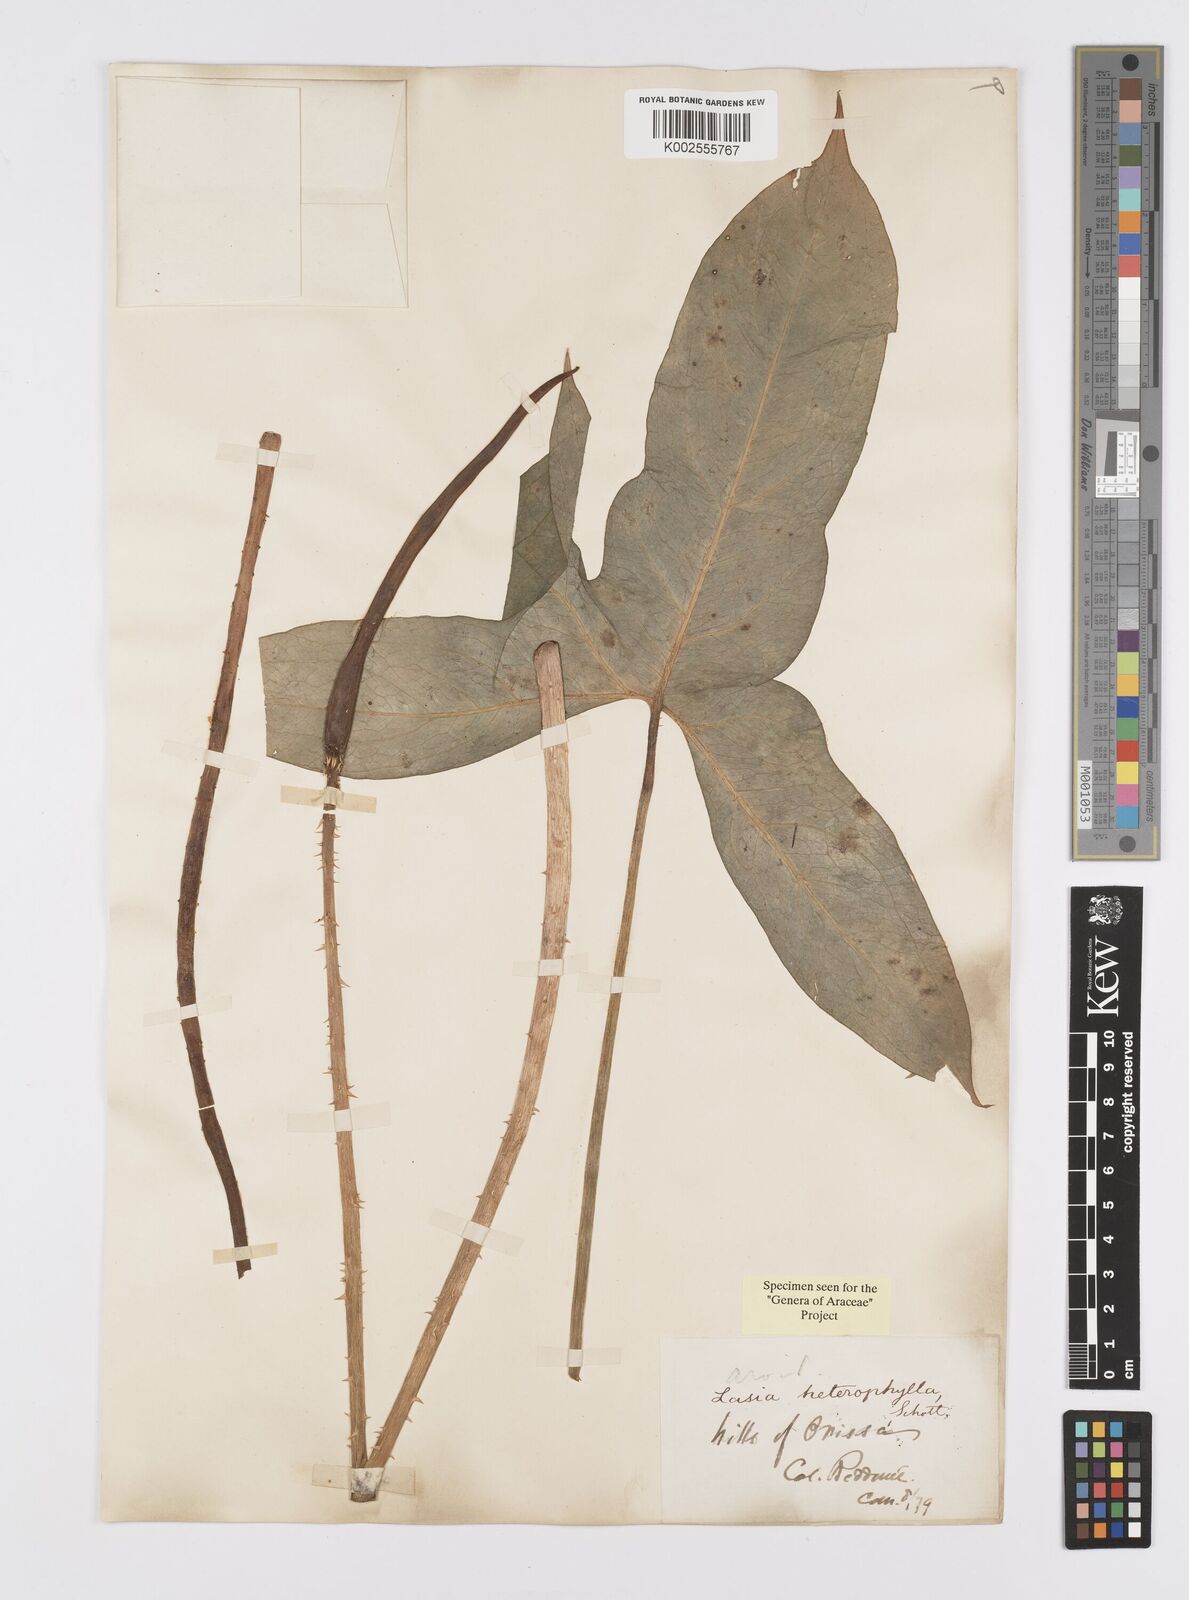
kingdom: Plantae
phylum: Tracheophyta
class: Liliopsida
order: Alismatales
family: Araceae
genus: Lasia
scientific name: Lasia spinosa
